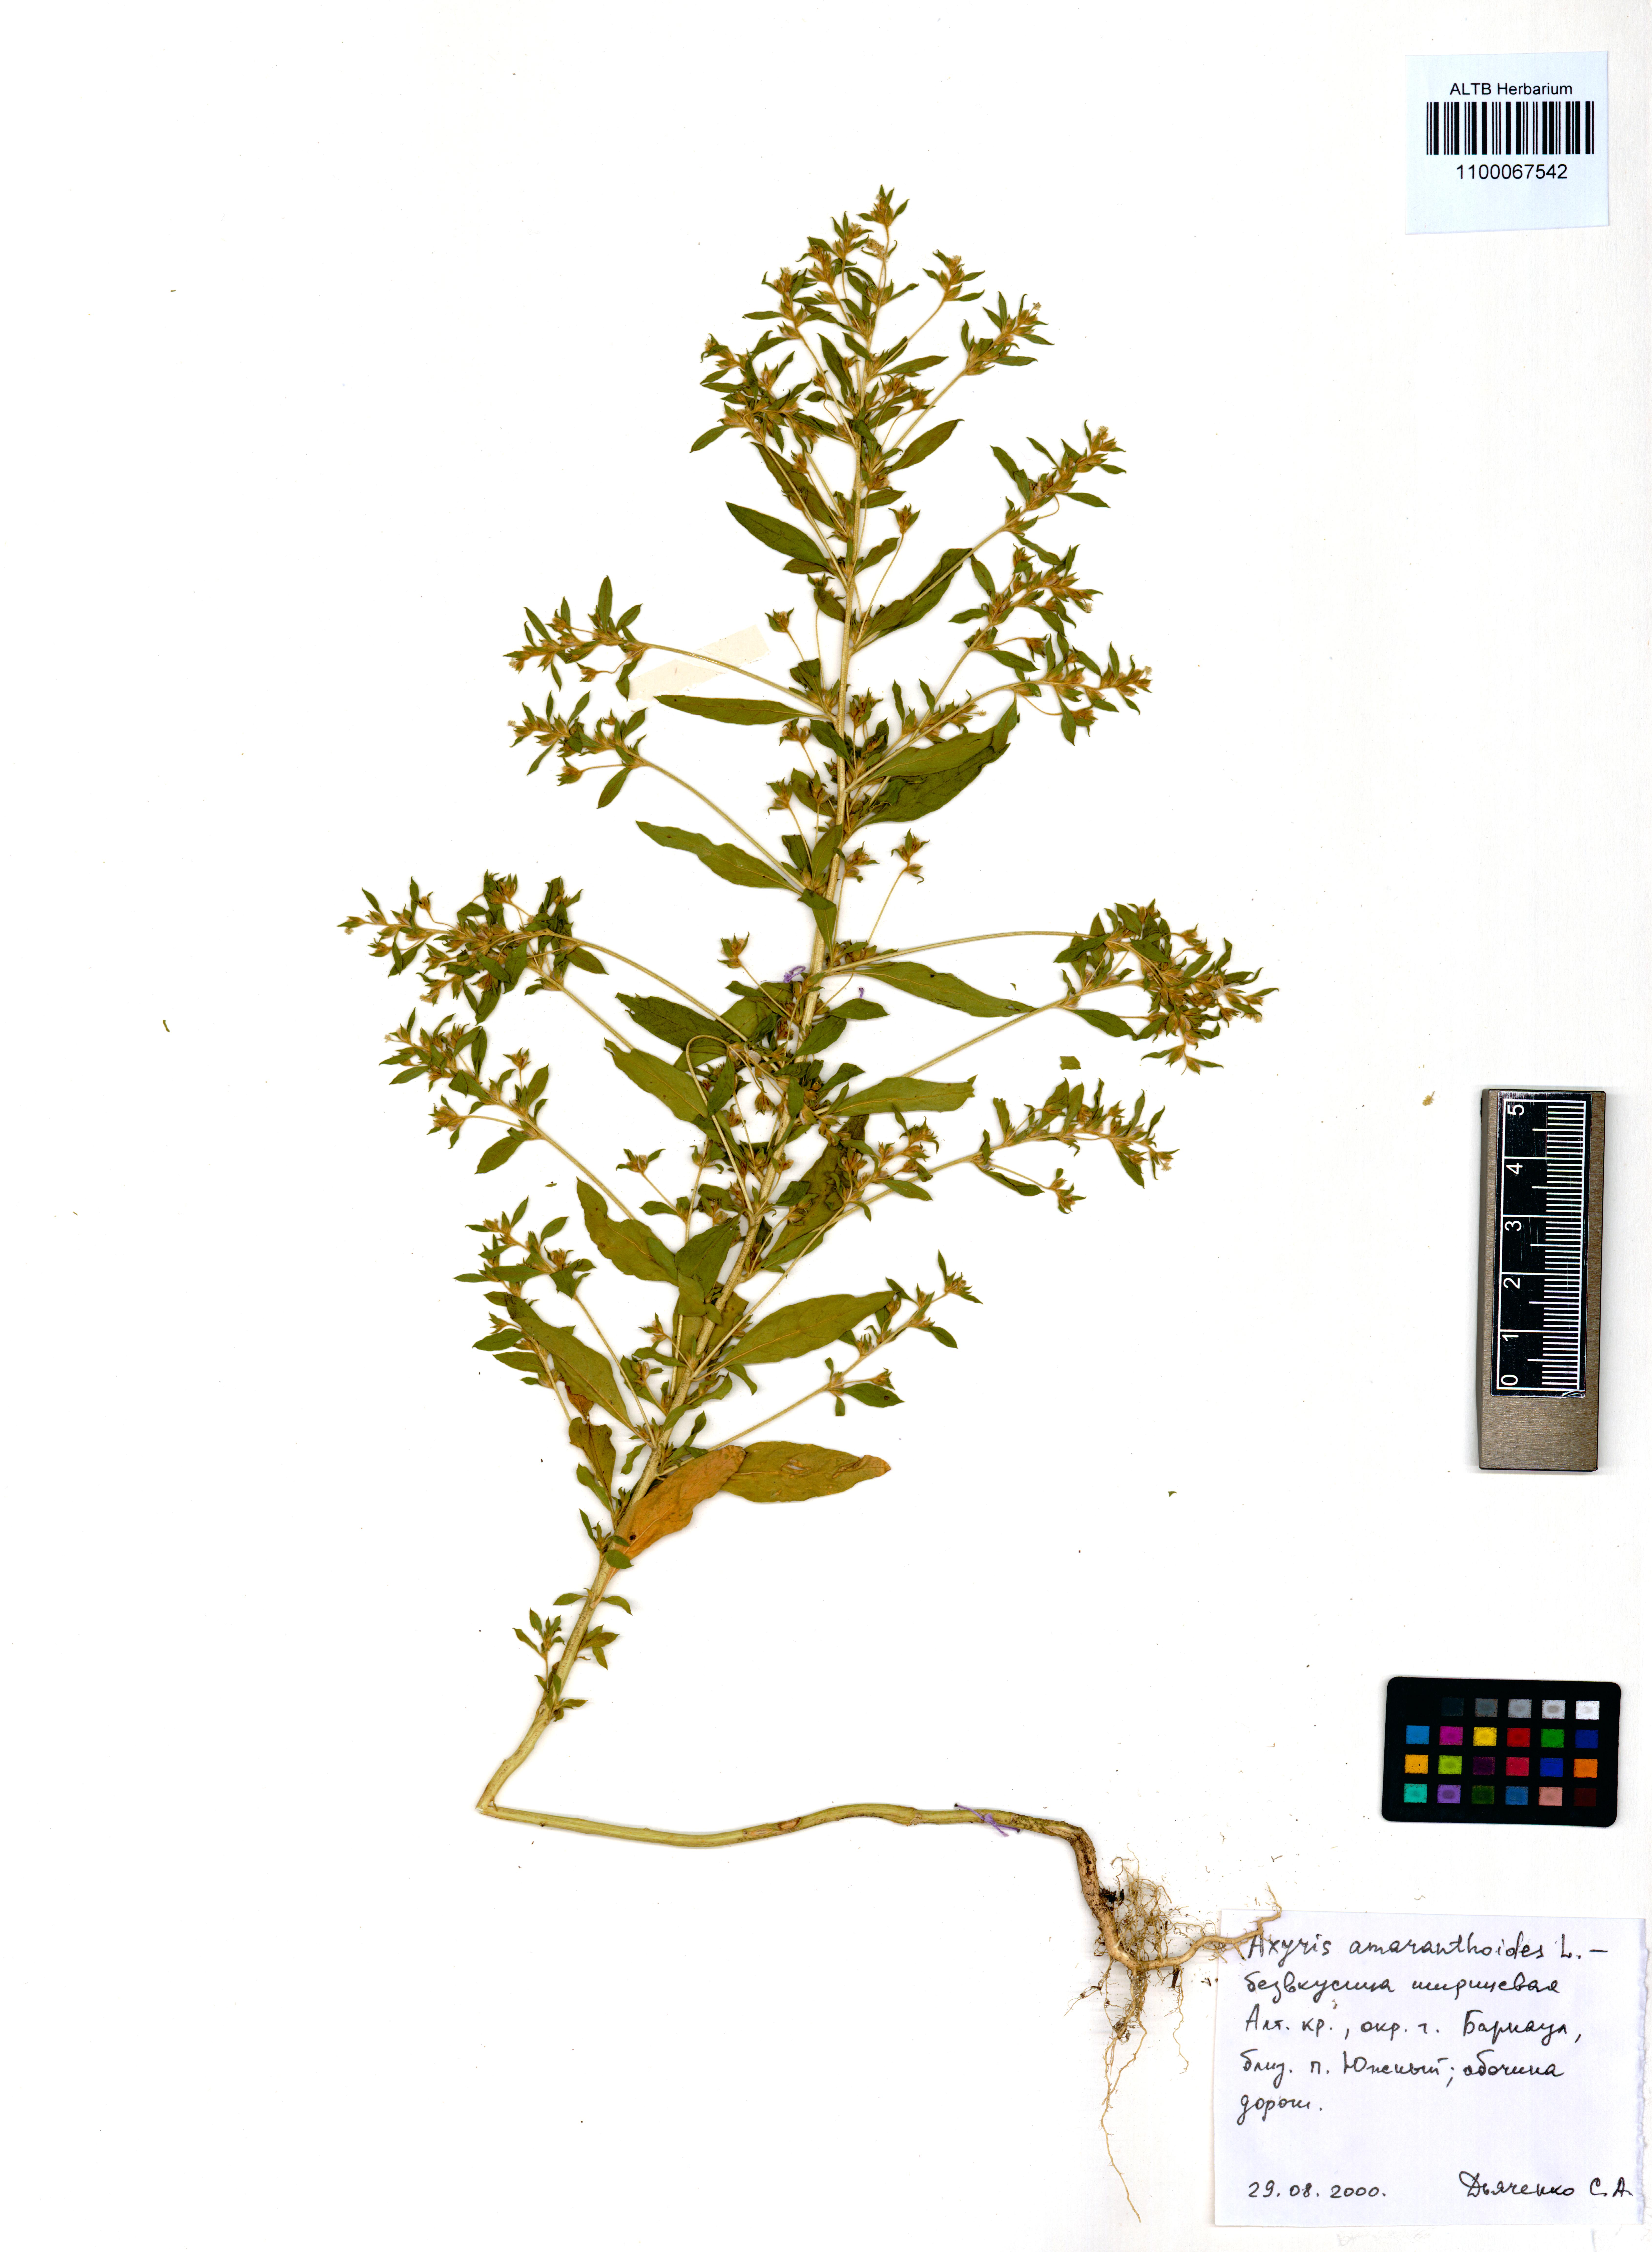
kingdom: Plantae
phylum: Tracheophyta
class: Magnoliopsida
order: Caryophyllales
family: Amaranthaceae
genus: Axyris
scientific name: Axyris amaranthoides
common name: Russian pigweed
